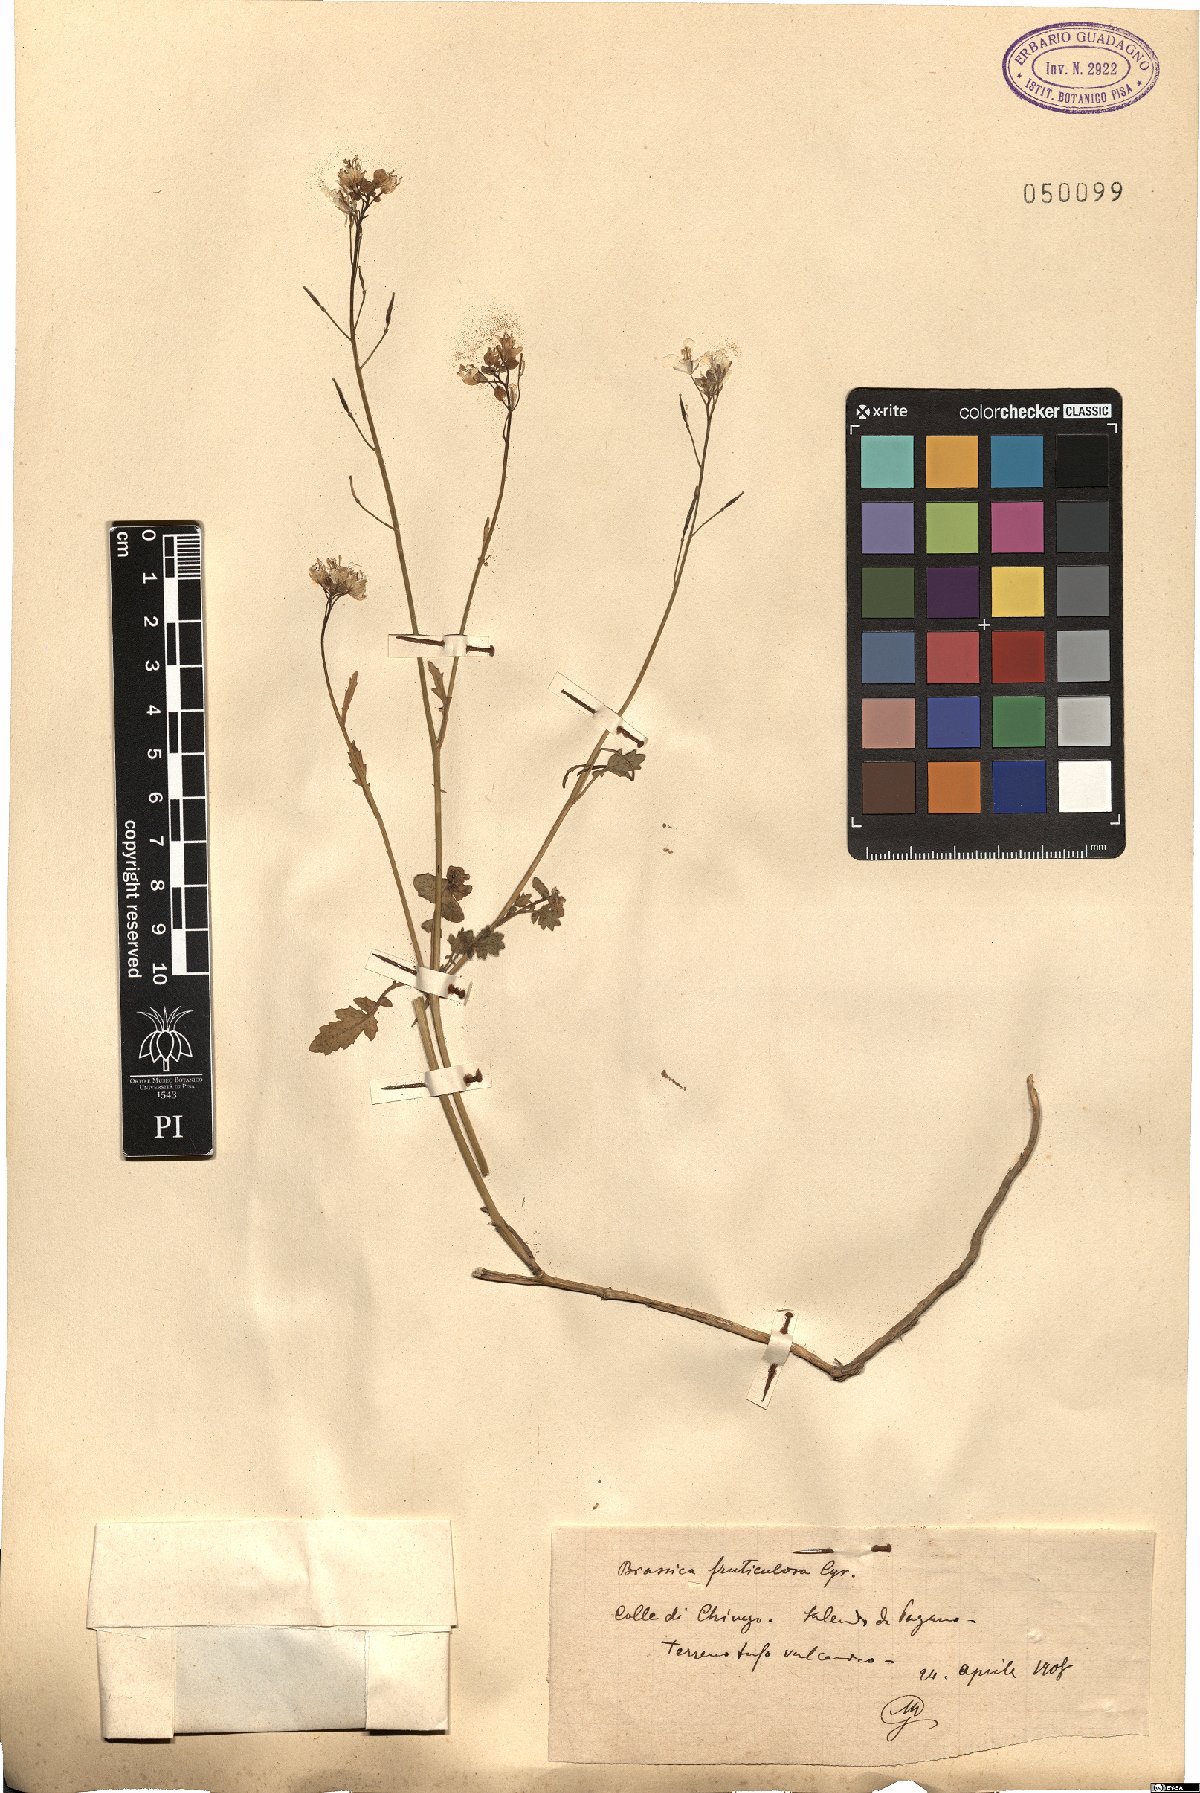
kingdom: Plantae
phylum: Tracheophyta
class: Magnoliopsida
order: Brassicales
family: Brassicaceae
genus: Brassica
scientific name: Brassica fruticulosa
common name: Twiggy turnip
